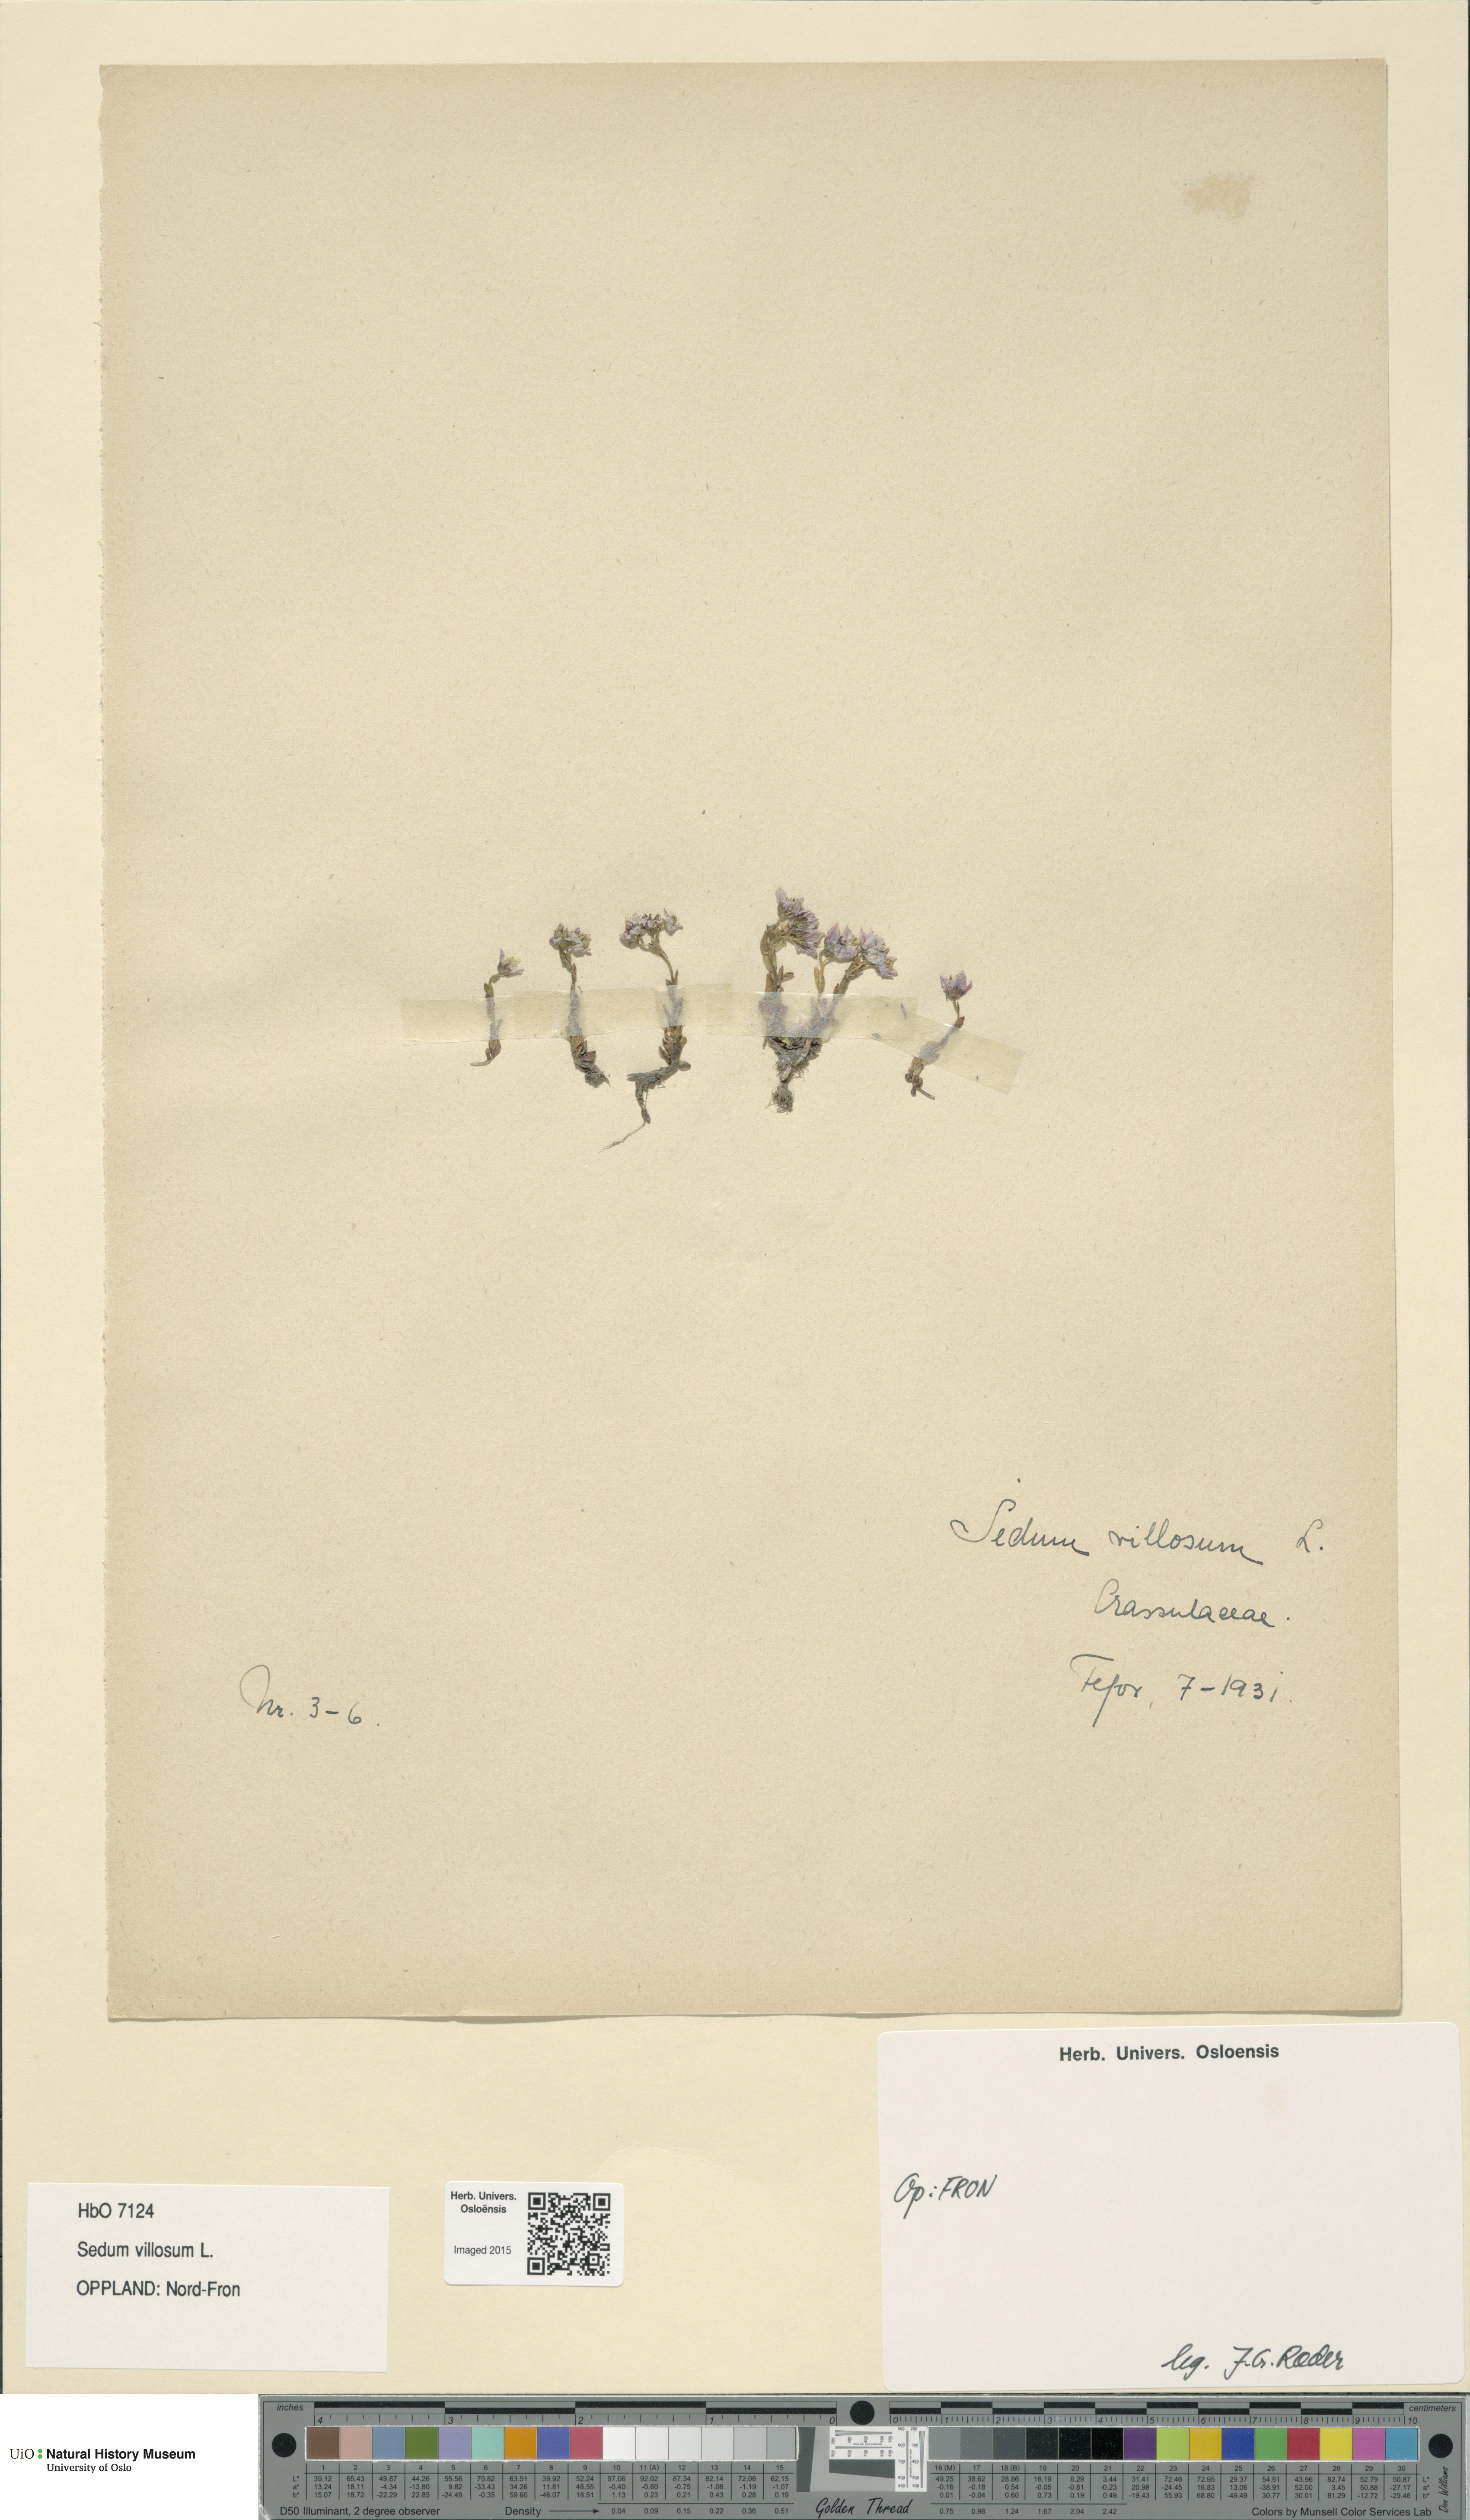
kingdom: Plantae
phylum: Tracheophyta
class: Magnoliopsida
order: Saxifragales
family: Crassulaceae
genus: Sedum
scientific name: Sedum villosum
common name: Hairy stonecrop
